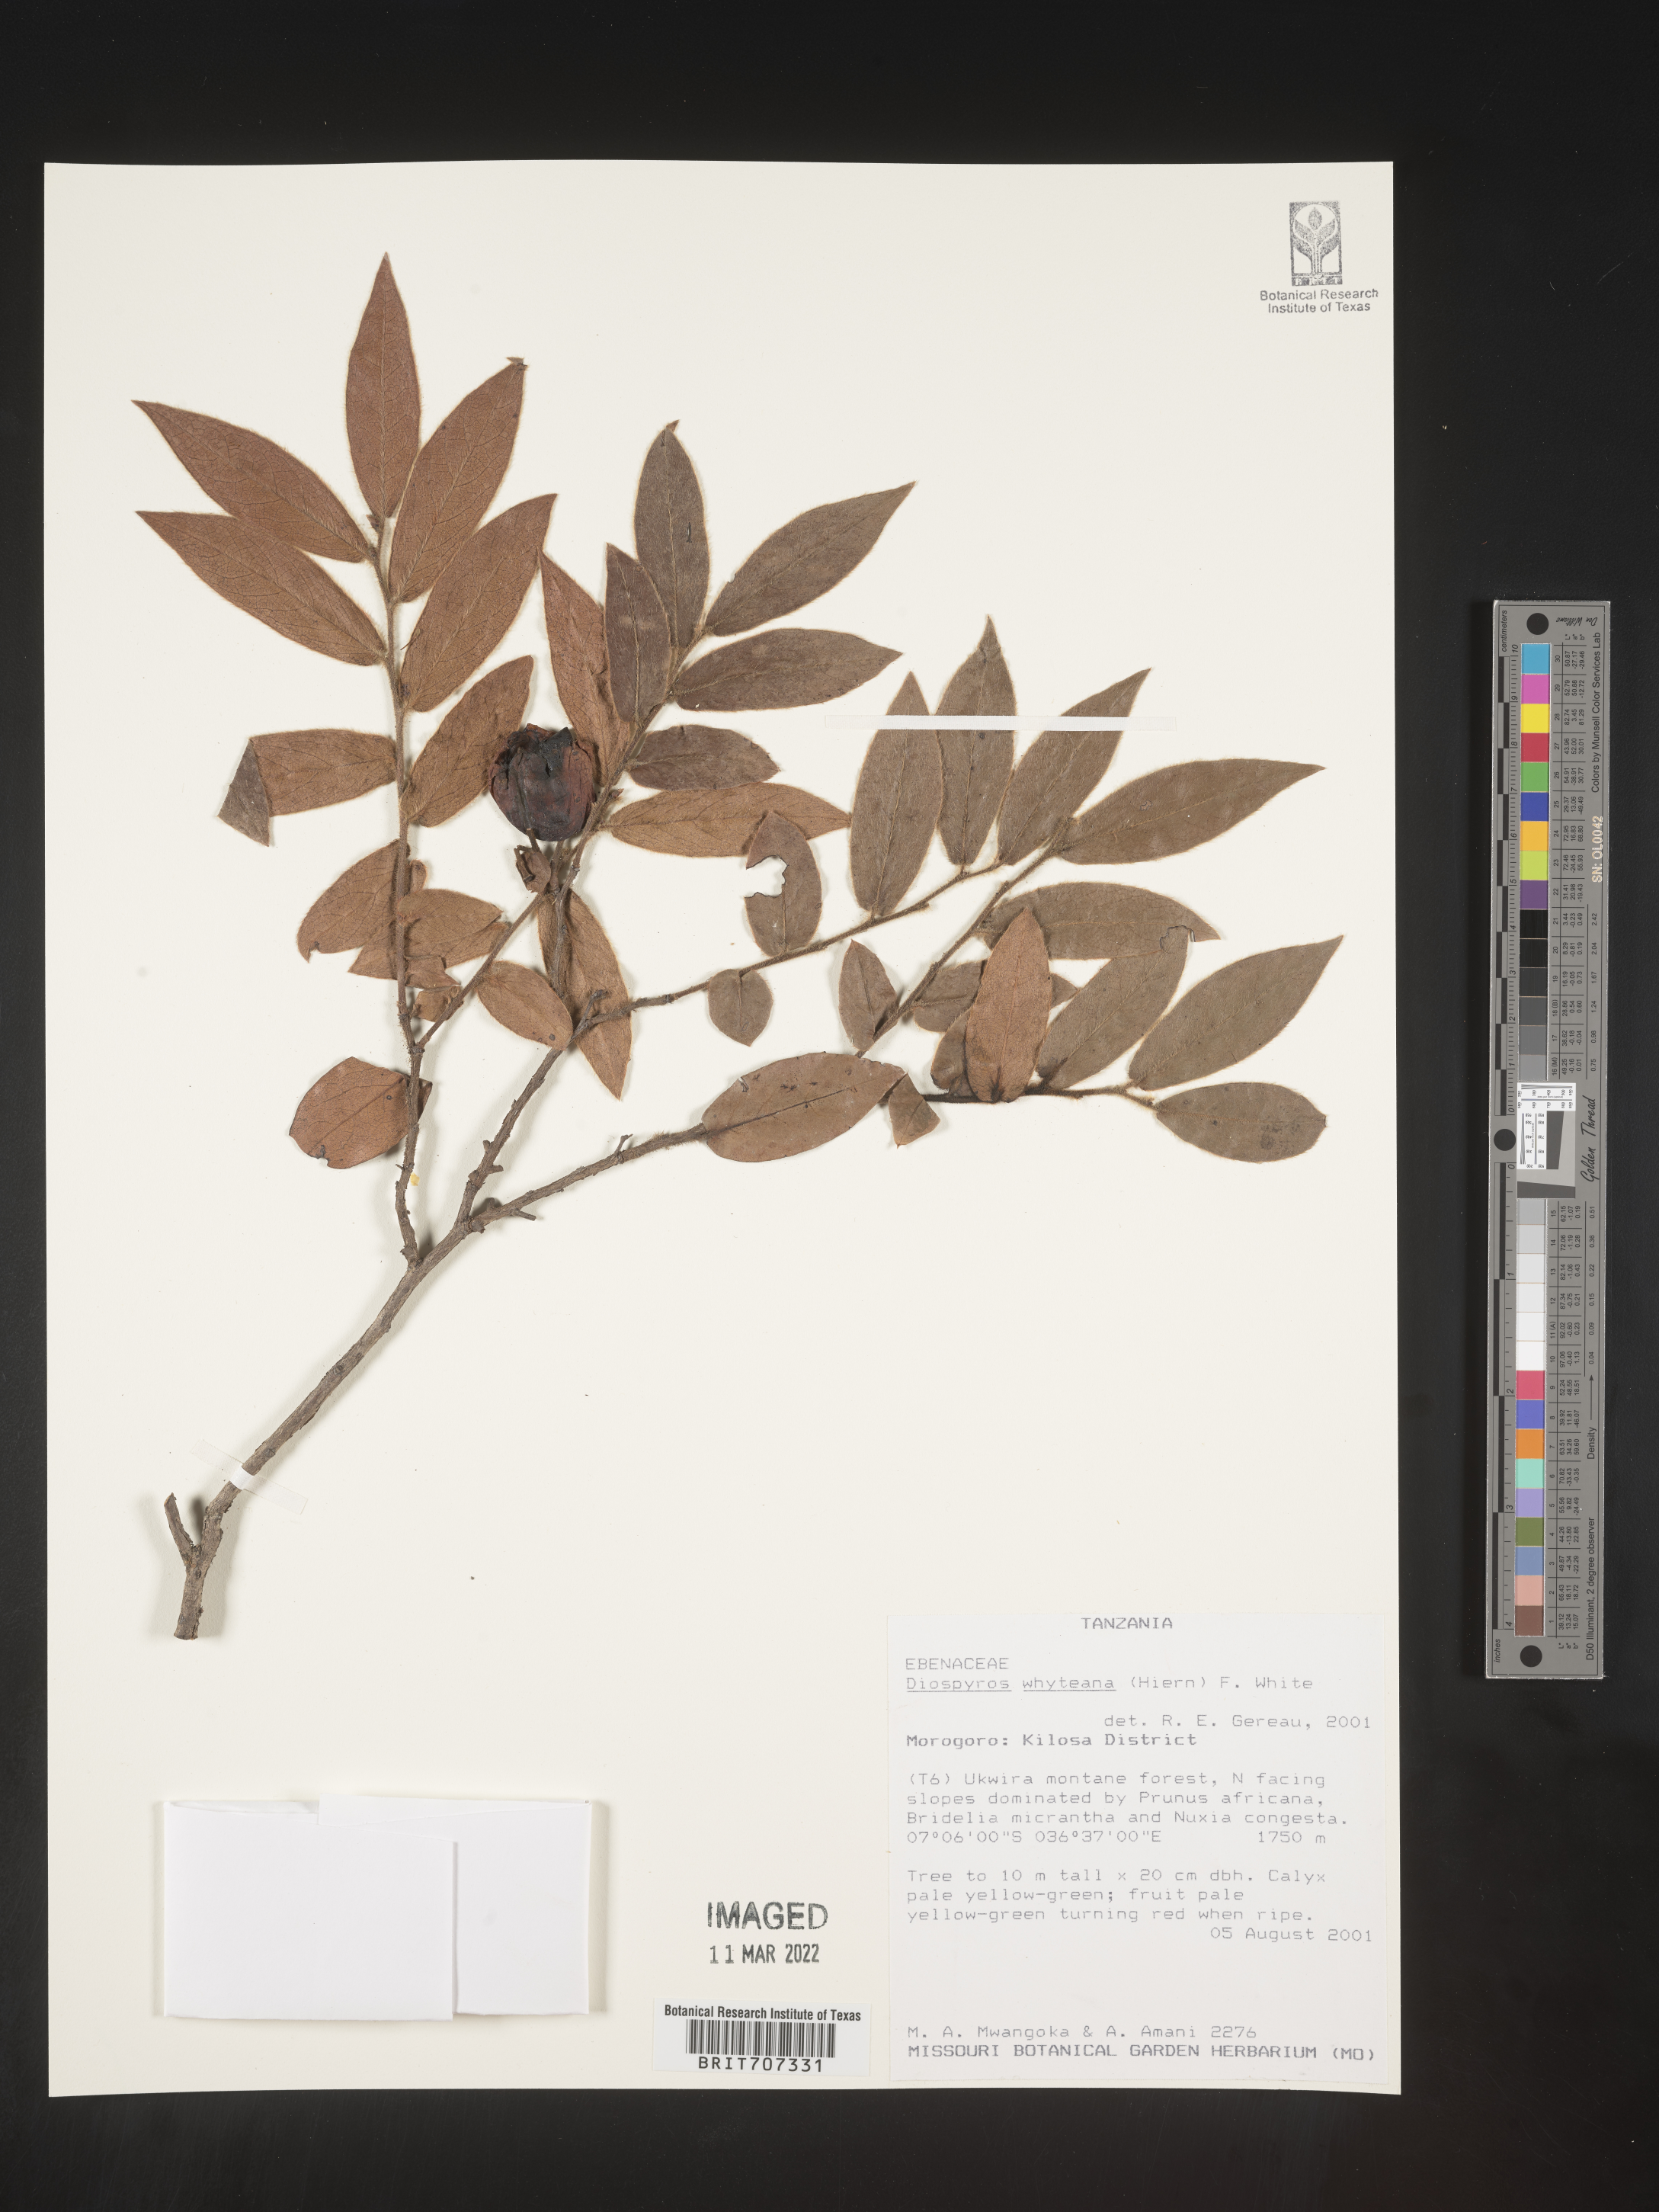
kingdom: Plantae
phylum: Tracheophyta
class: Magnoliopsida
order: Ericales
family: Ebenaceae
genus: Diospyros
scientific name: Diospyros
